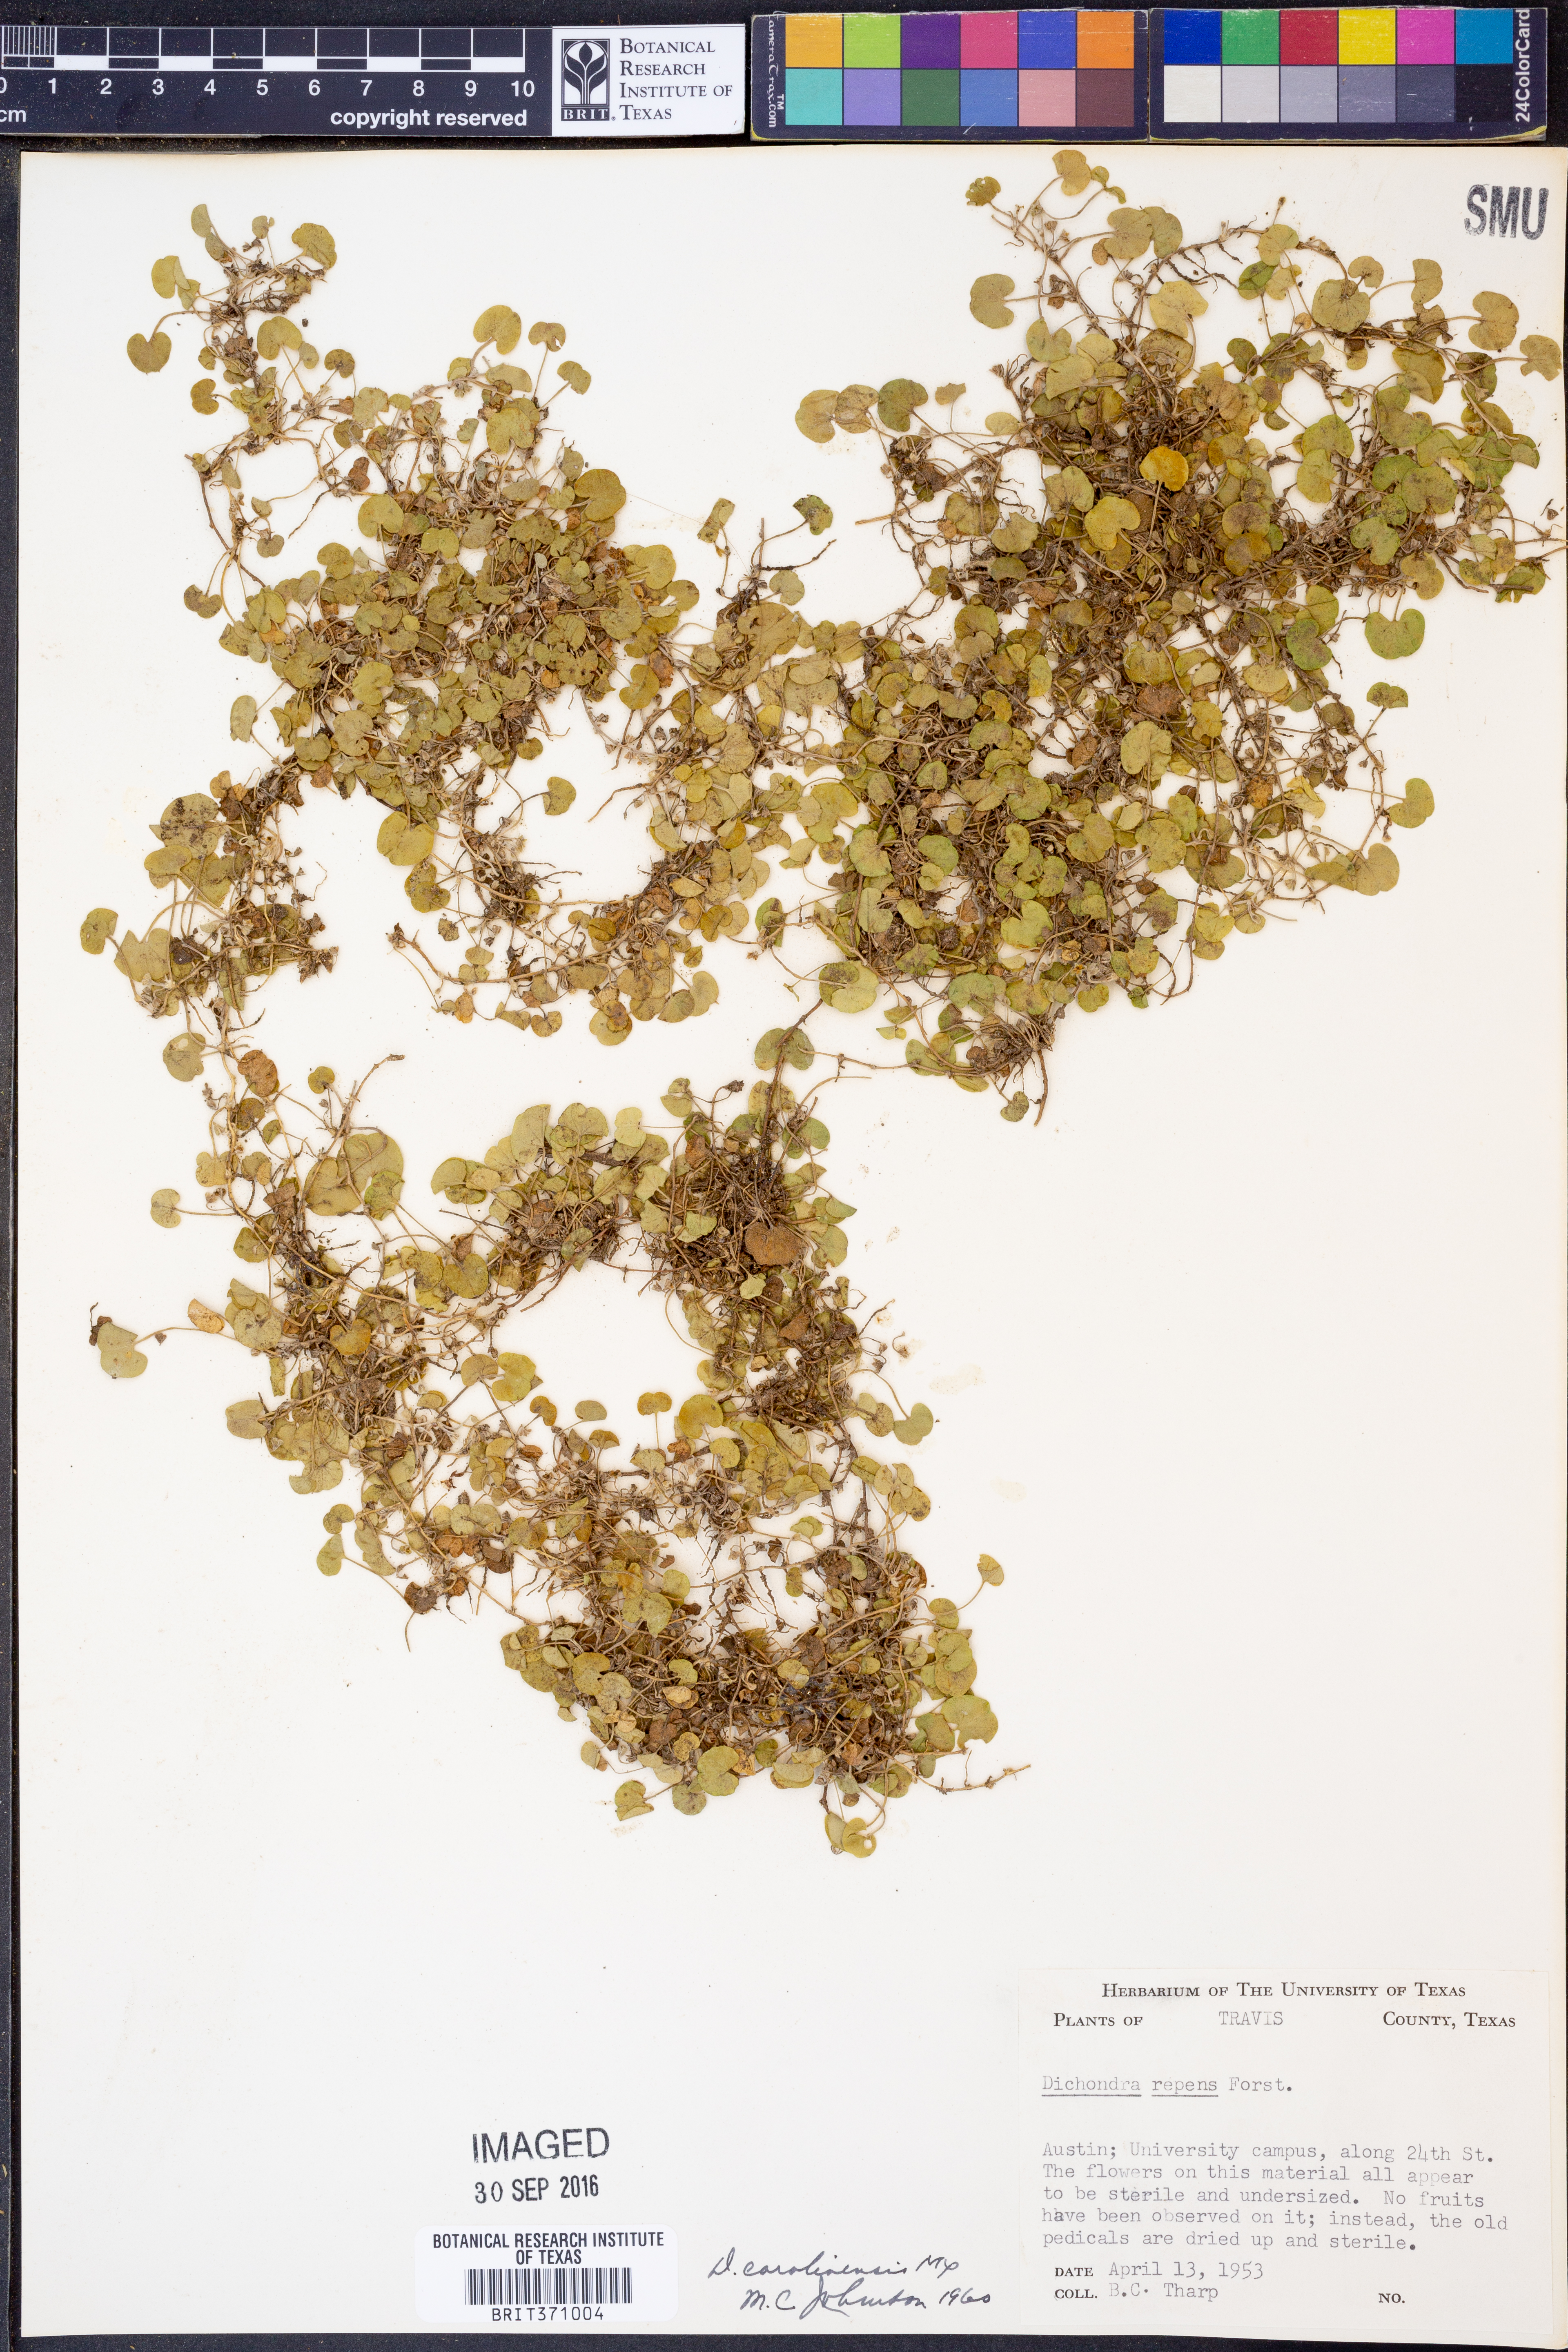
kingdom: Plantae
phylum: Tracheophyta
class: Magnoliopsida
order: Solanales
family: Convolvulaceae
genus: Dichondra
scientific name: Dichondra carolinensis
